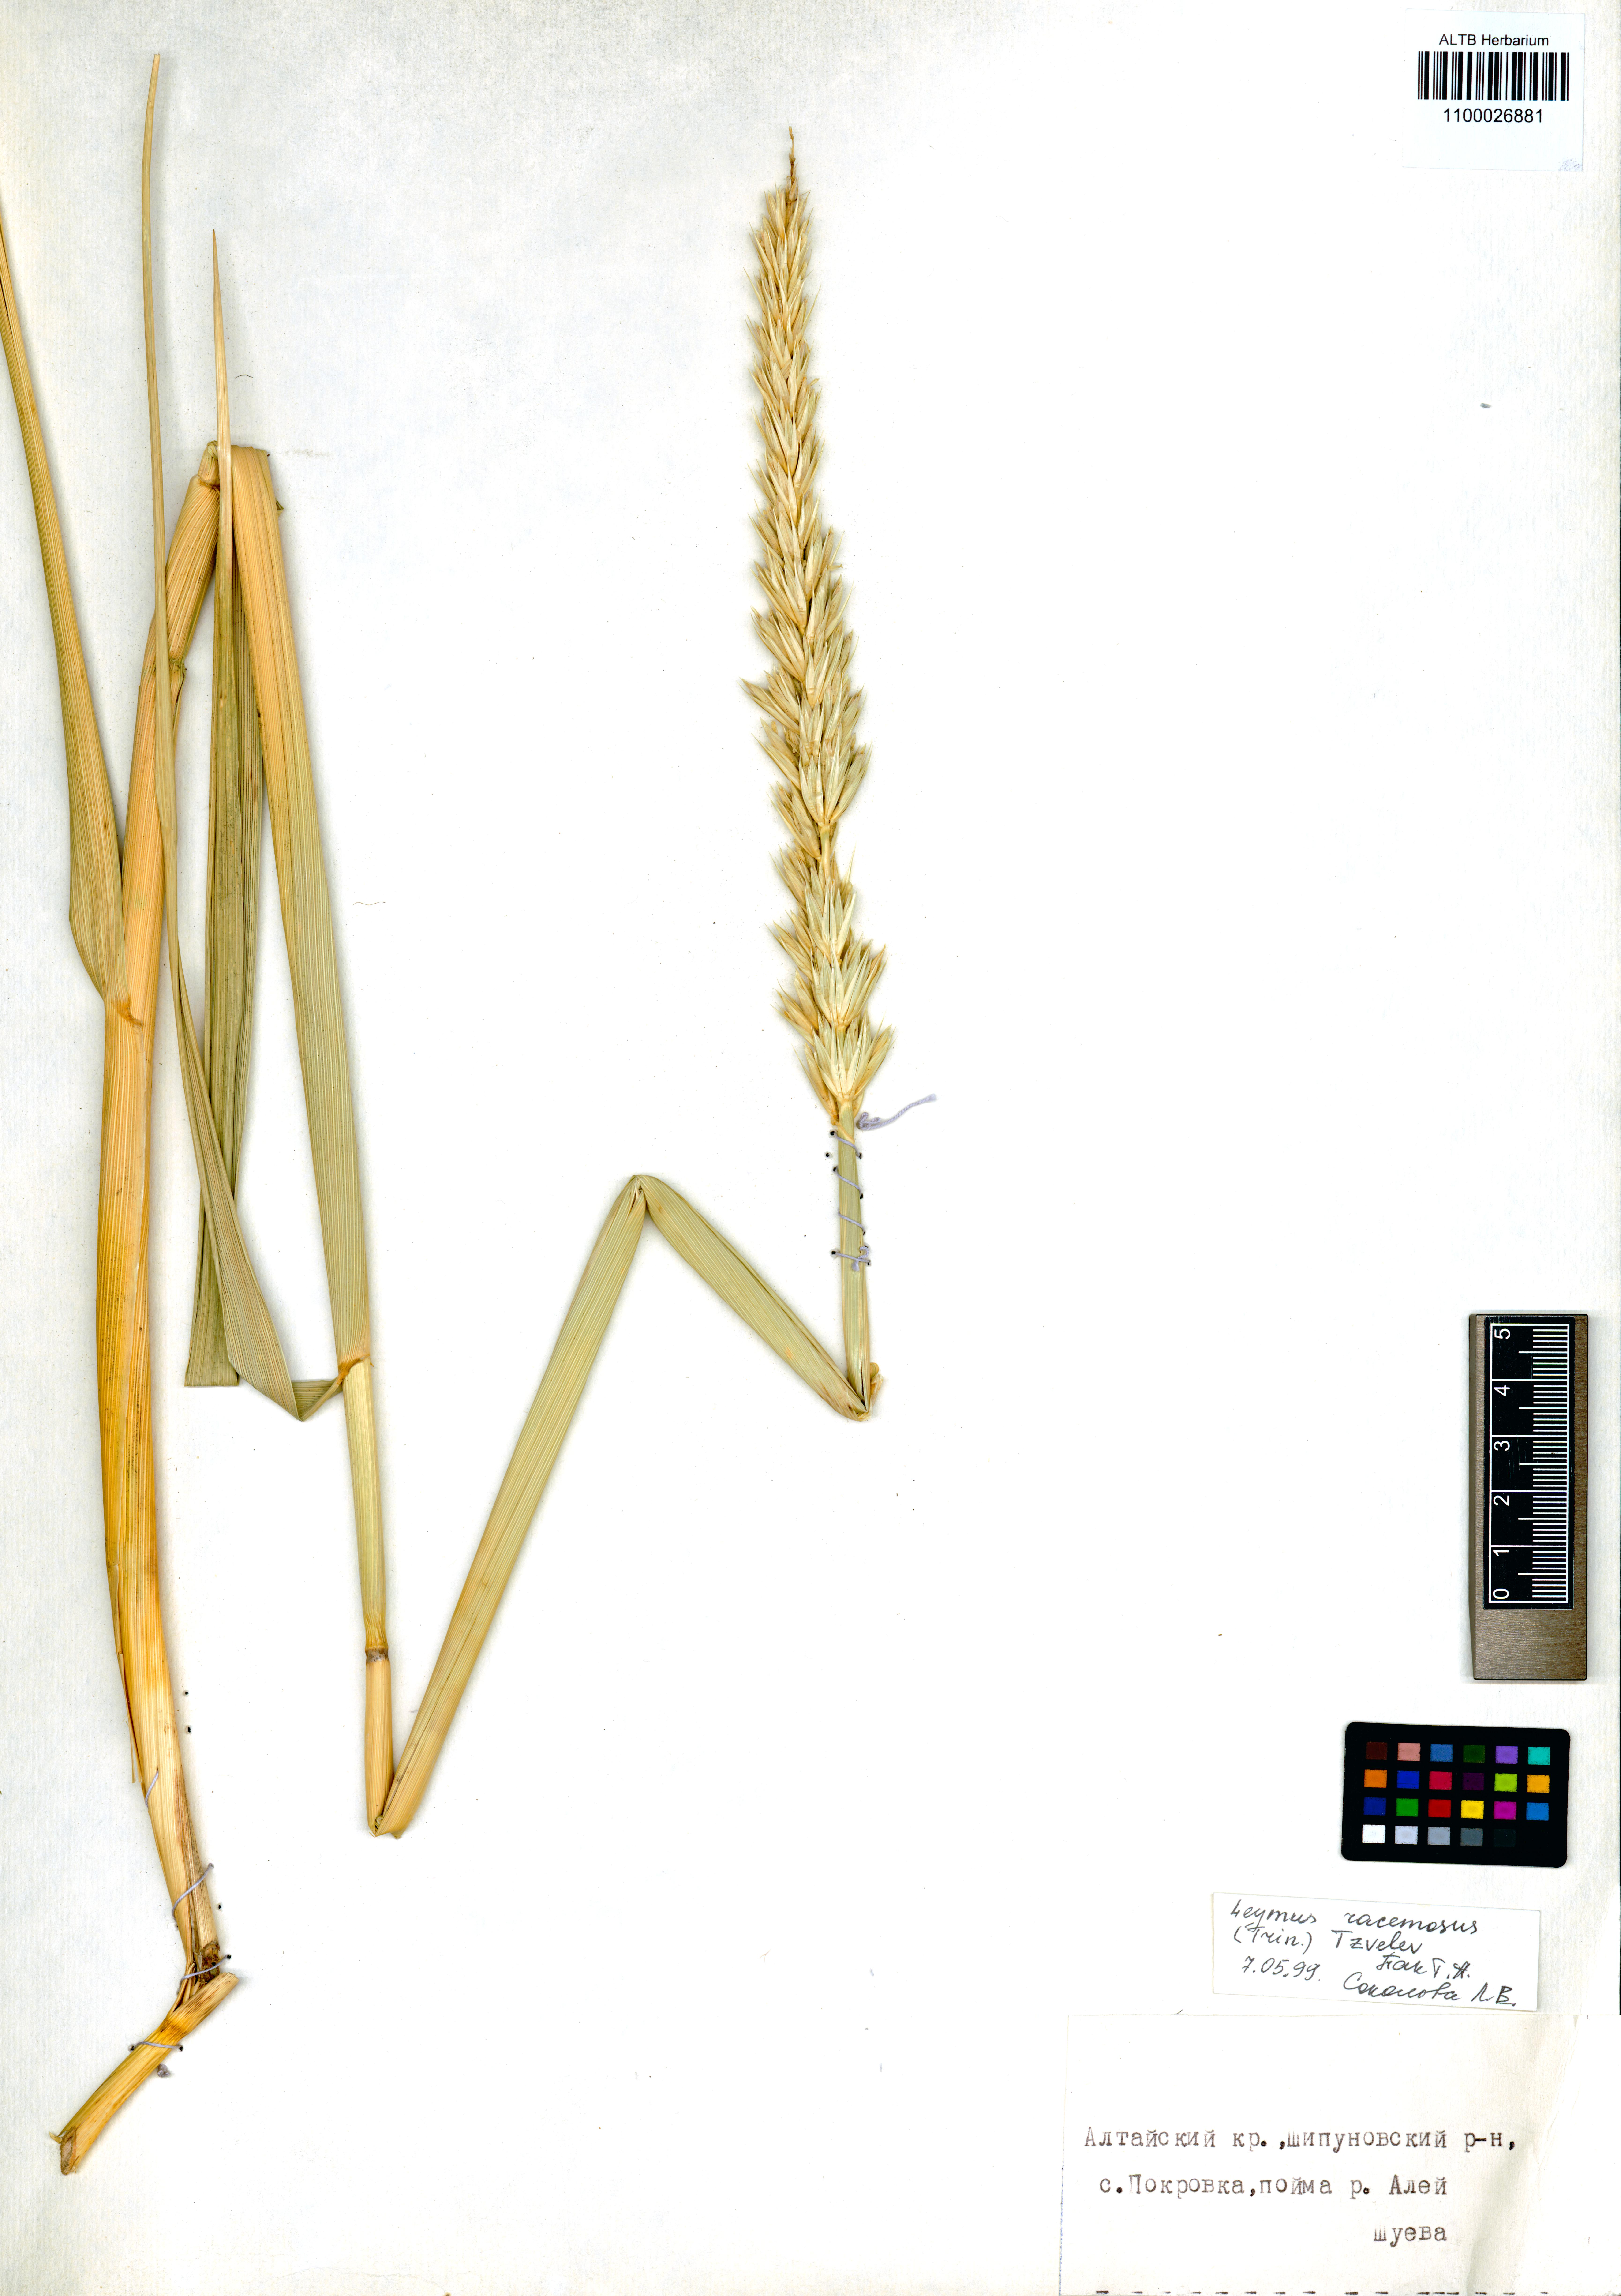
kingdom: Plantae
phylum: Tracheophyta
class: Liliopsida
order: Poales
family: Poaceae
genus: Leymus
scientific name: Leymus racemosus
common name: Mammoth wildrye
